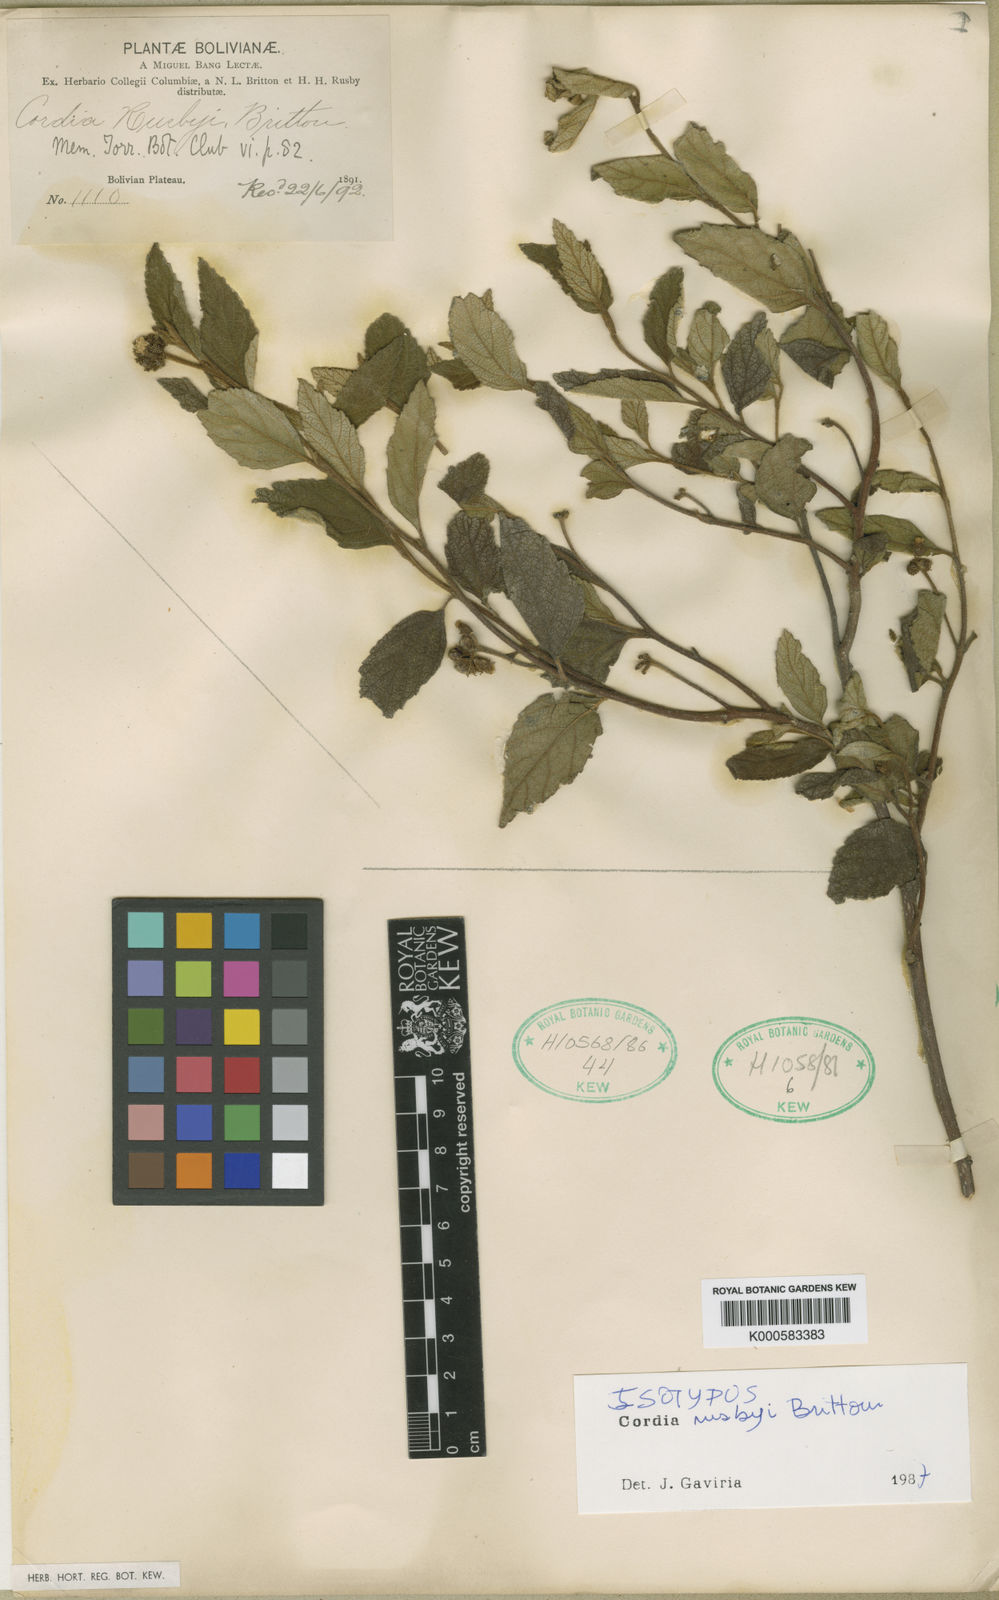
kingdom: Plantae
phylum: Tracheophyta
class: Magnoliopsida
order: Boraginales
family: Cordiaceae
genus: Cordia
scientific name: Cordia alliodora
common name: Spanish elm
